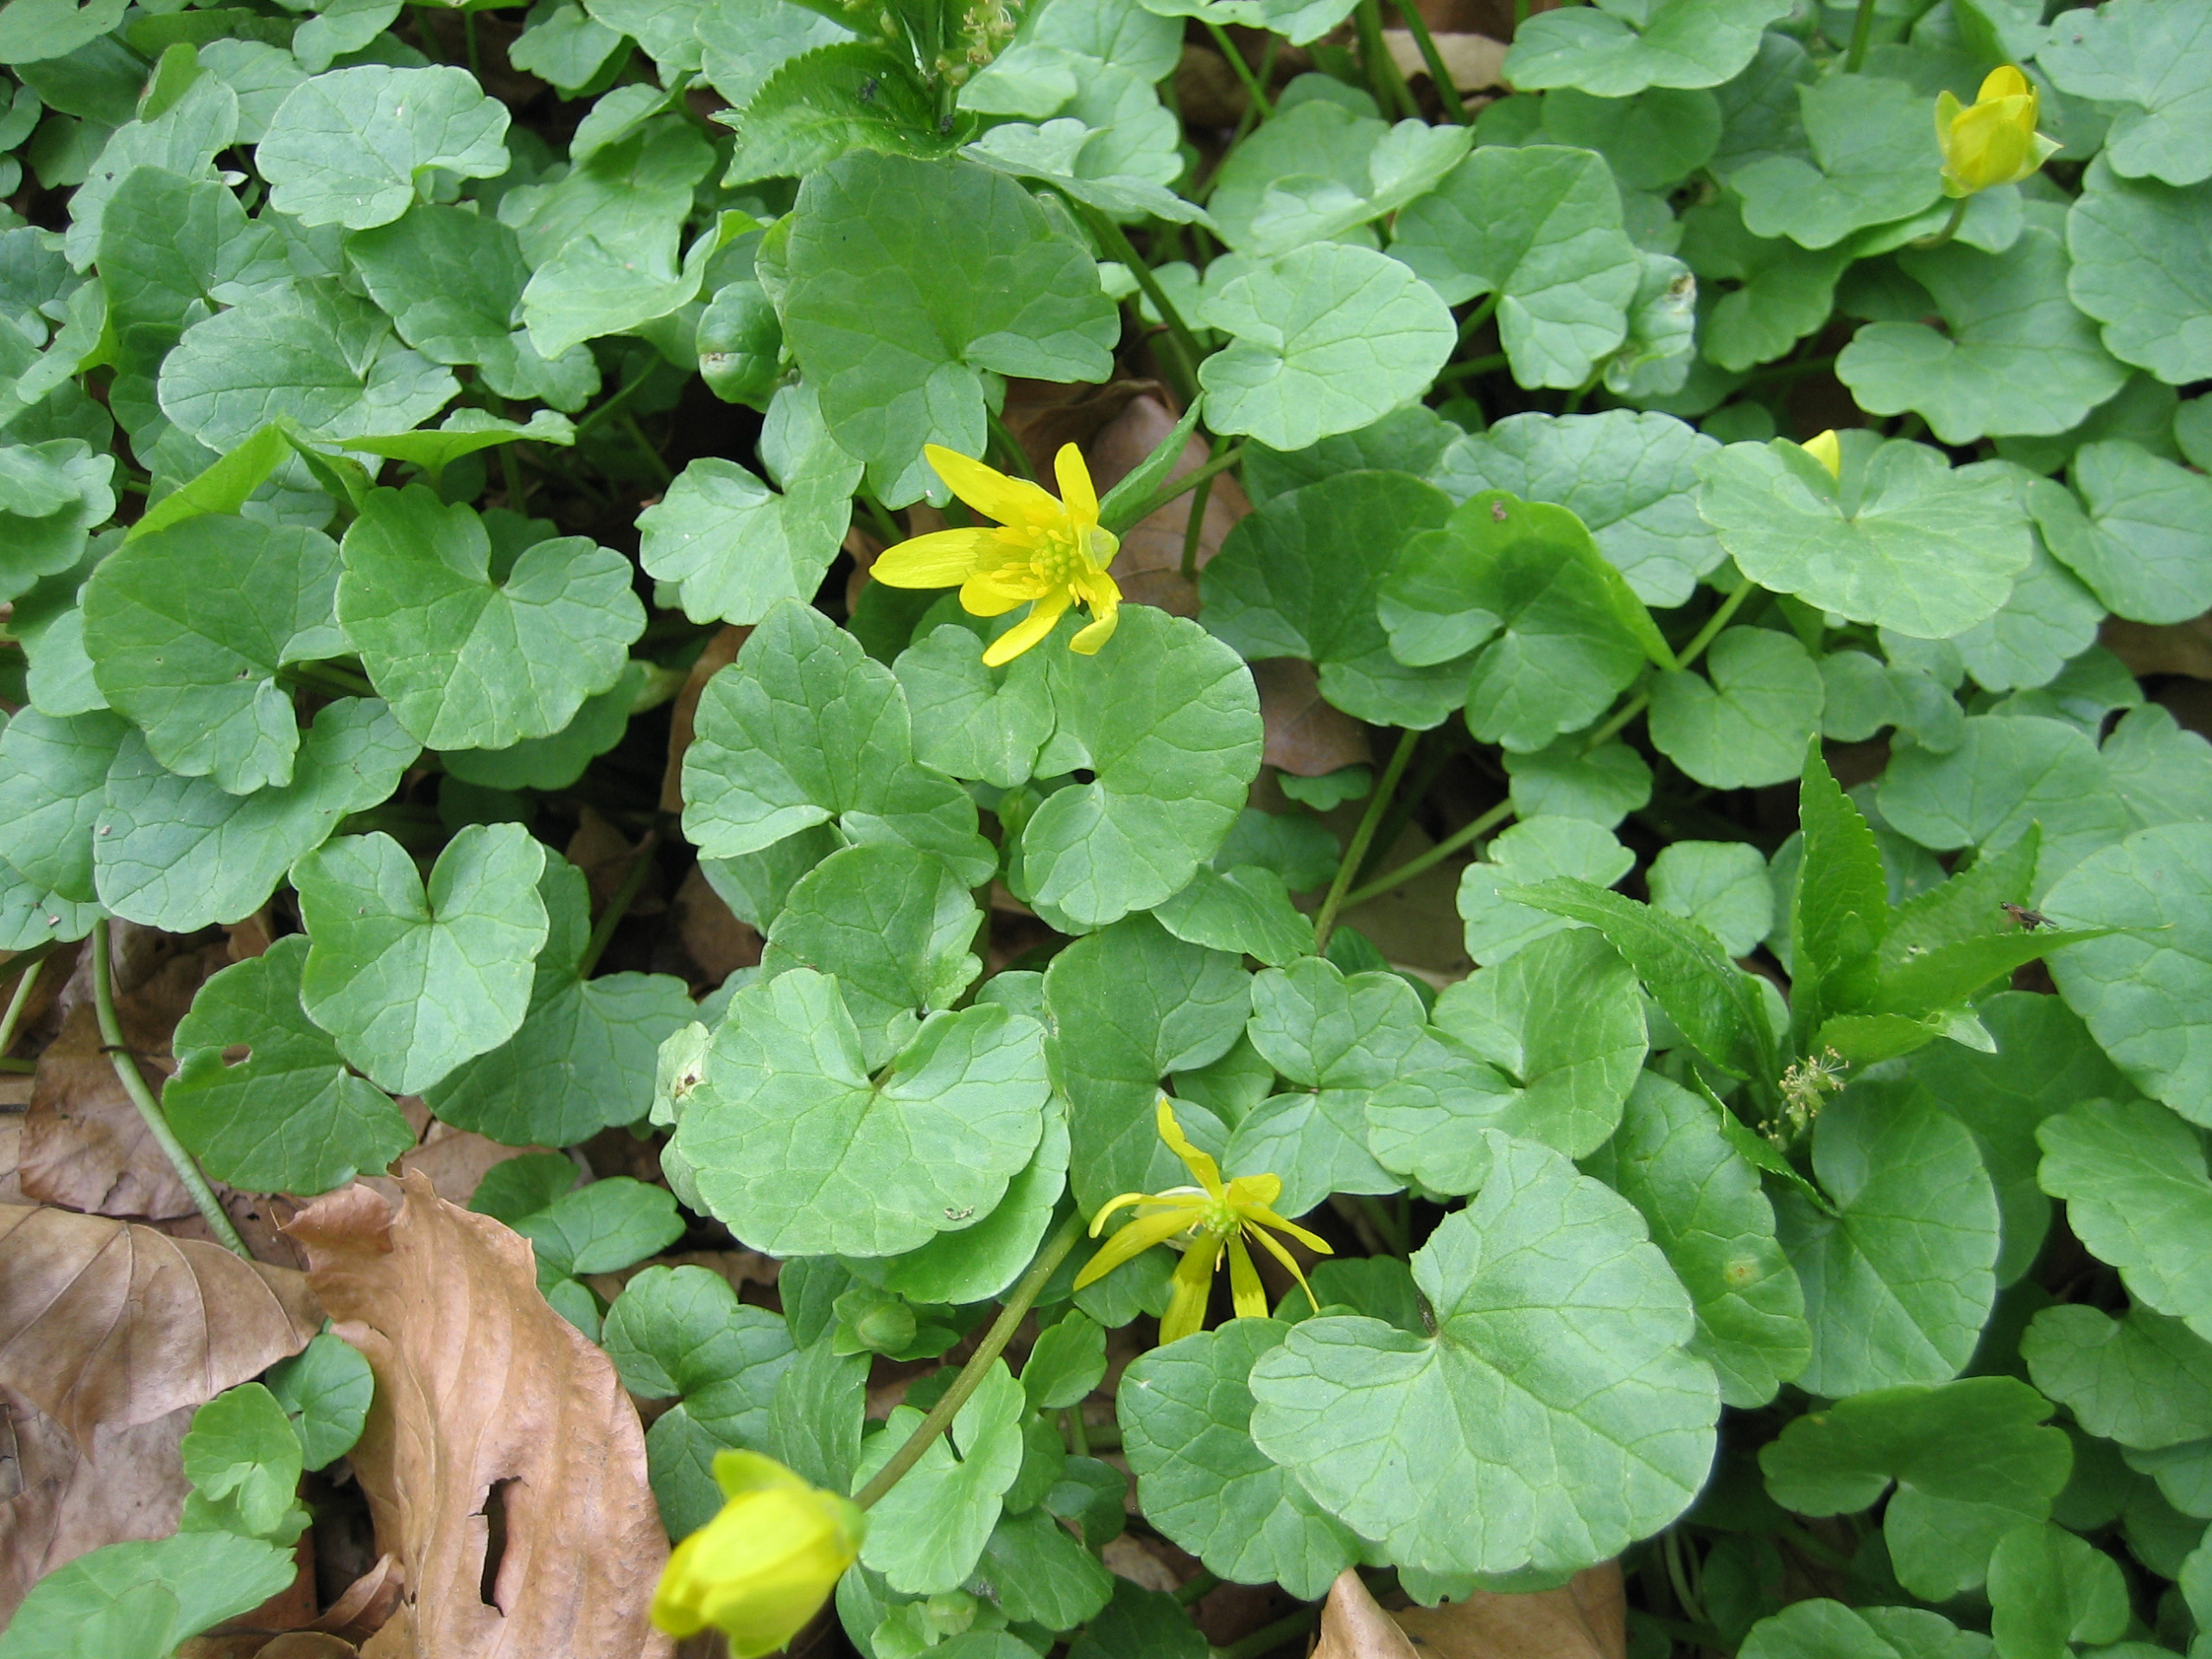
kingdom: Plantae
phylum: Tracheophyta
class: Magnoliopsida
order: Ranunculales
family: Ranunculaceae
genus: Ficaria
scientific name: Ficaria verna
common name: Vorterod
